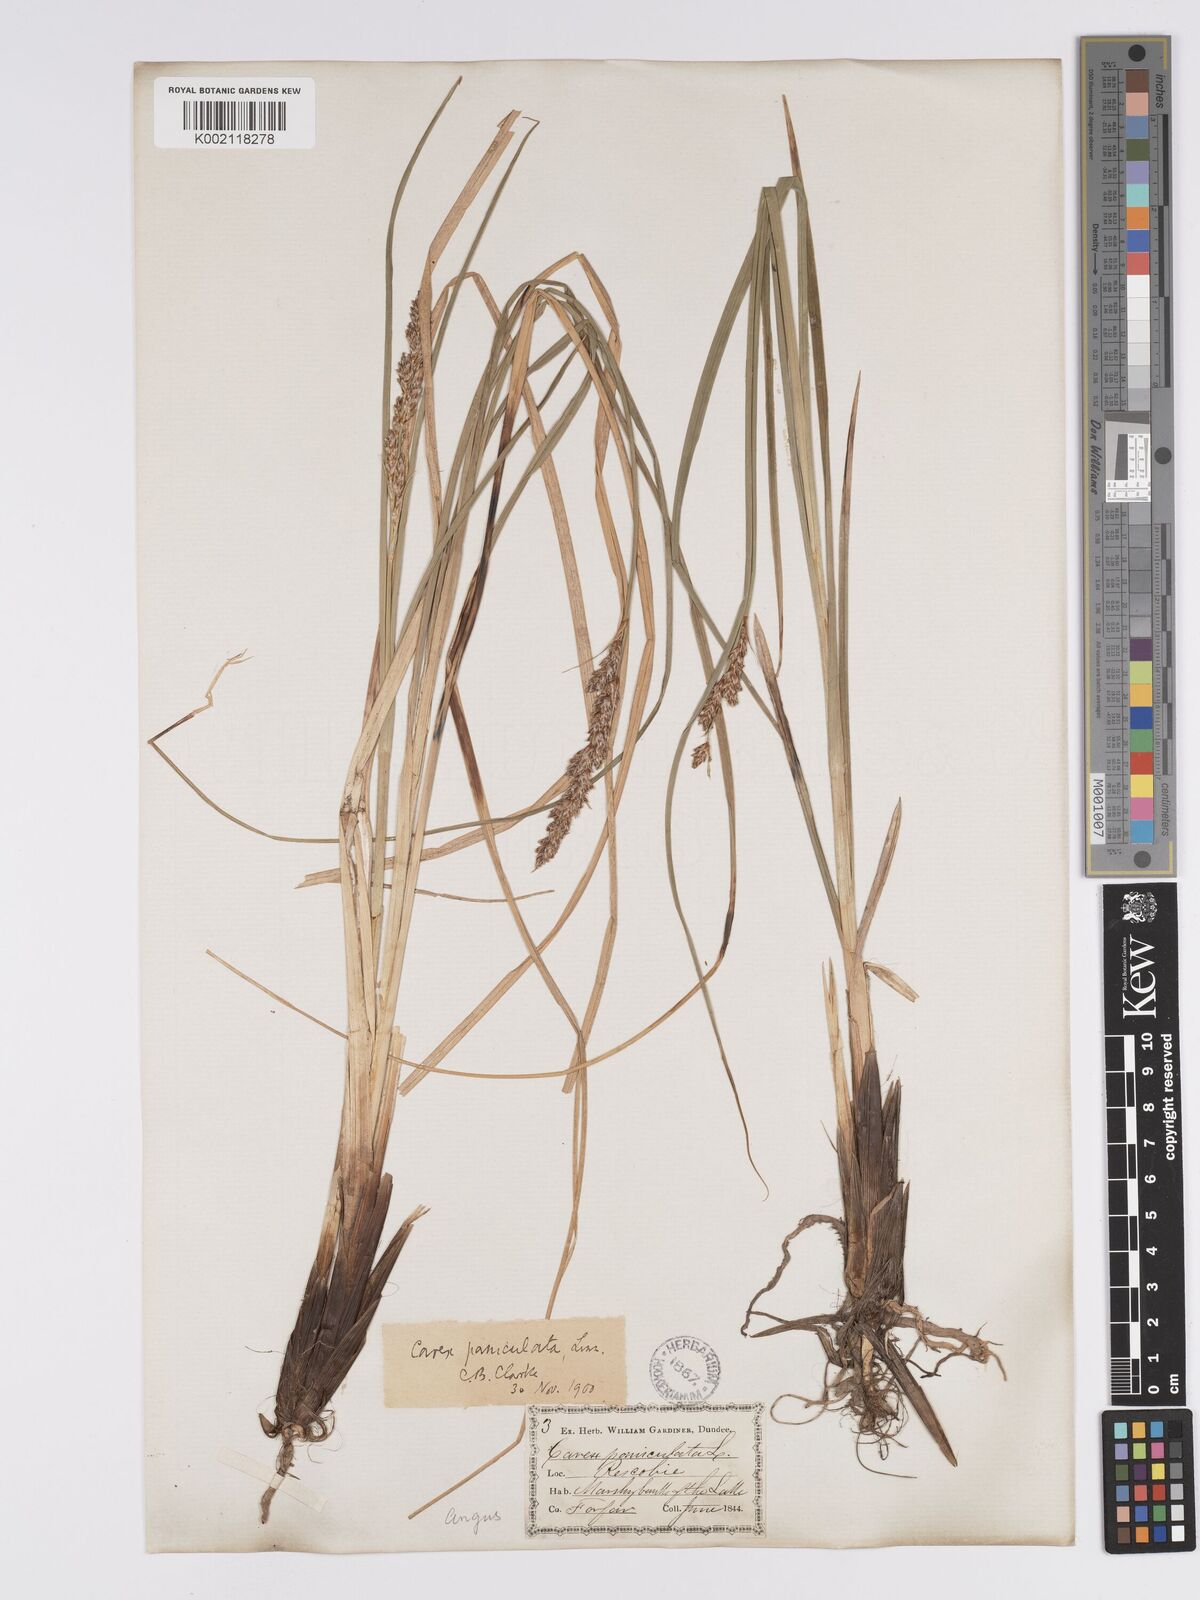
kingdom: Plantae
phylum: Tracheophyta
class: Liliopsida
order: Poales
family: Cyperaceae
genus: Carex
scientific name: Carex paniculata
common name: Greater tussock-sedge
